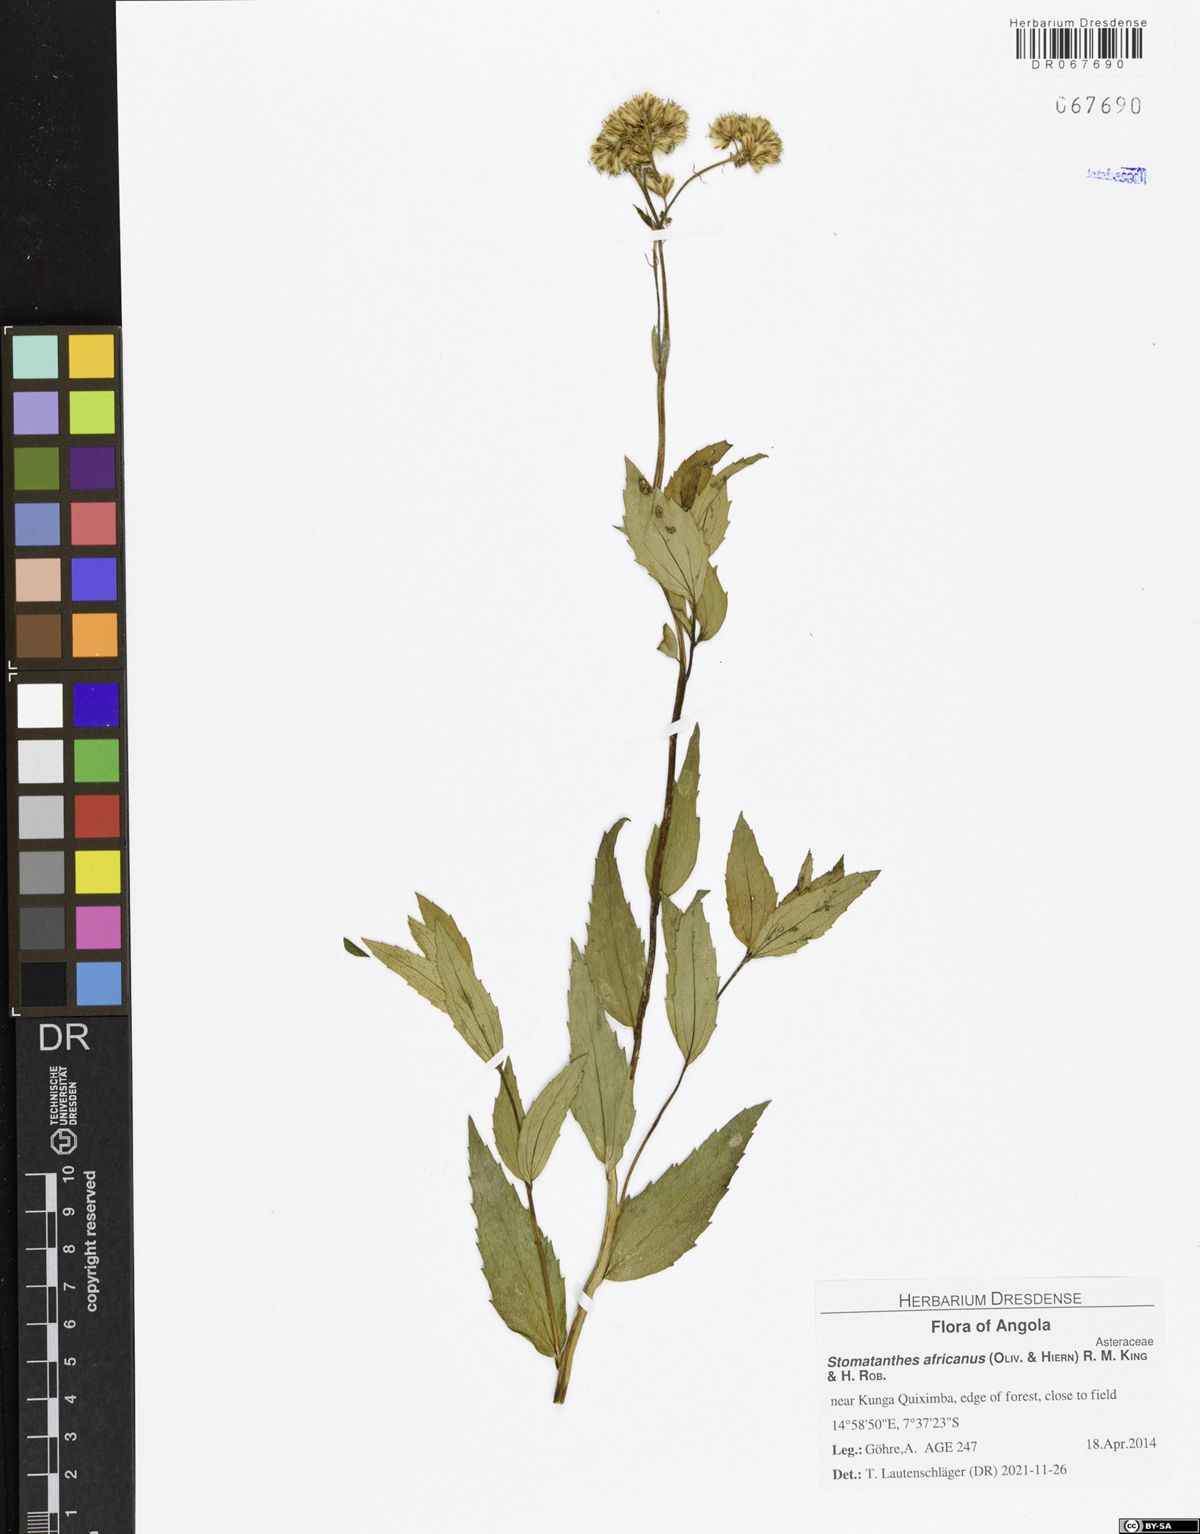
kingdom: Plantae
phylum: Tracheophyta
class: Magnoliopsida
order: Asterales
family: Asteraceae
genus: Stomatanthes
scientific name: Stomatanthes africanus
